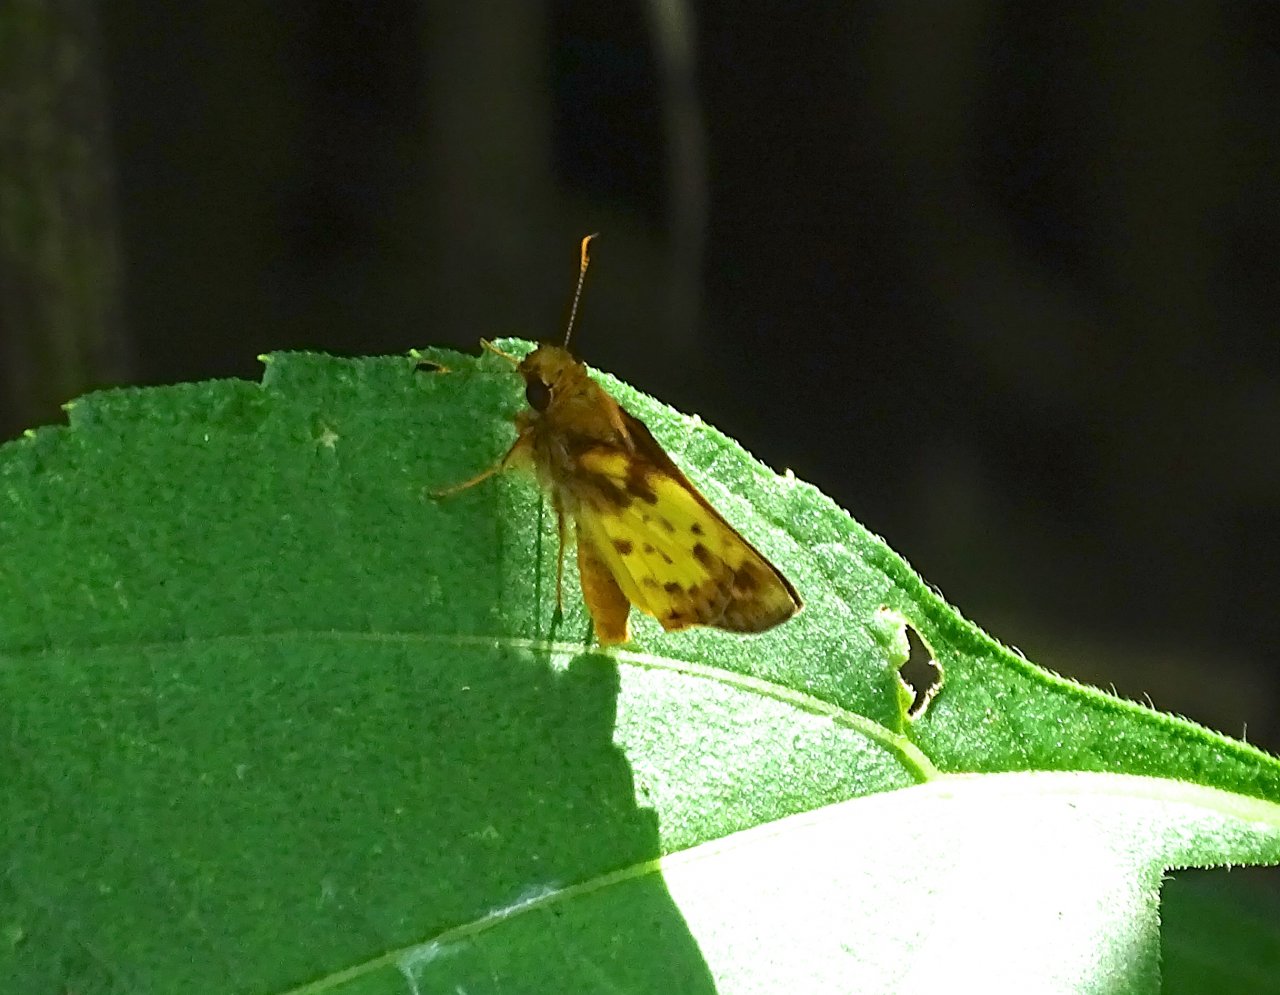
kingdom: Animalia
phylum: Arthropoda
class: Insecta
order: Lepidoptera
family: Hesperiidae
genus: Lon
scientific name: Lon zabulon
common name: Zabulon Skipper
